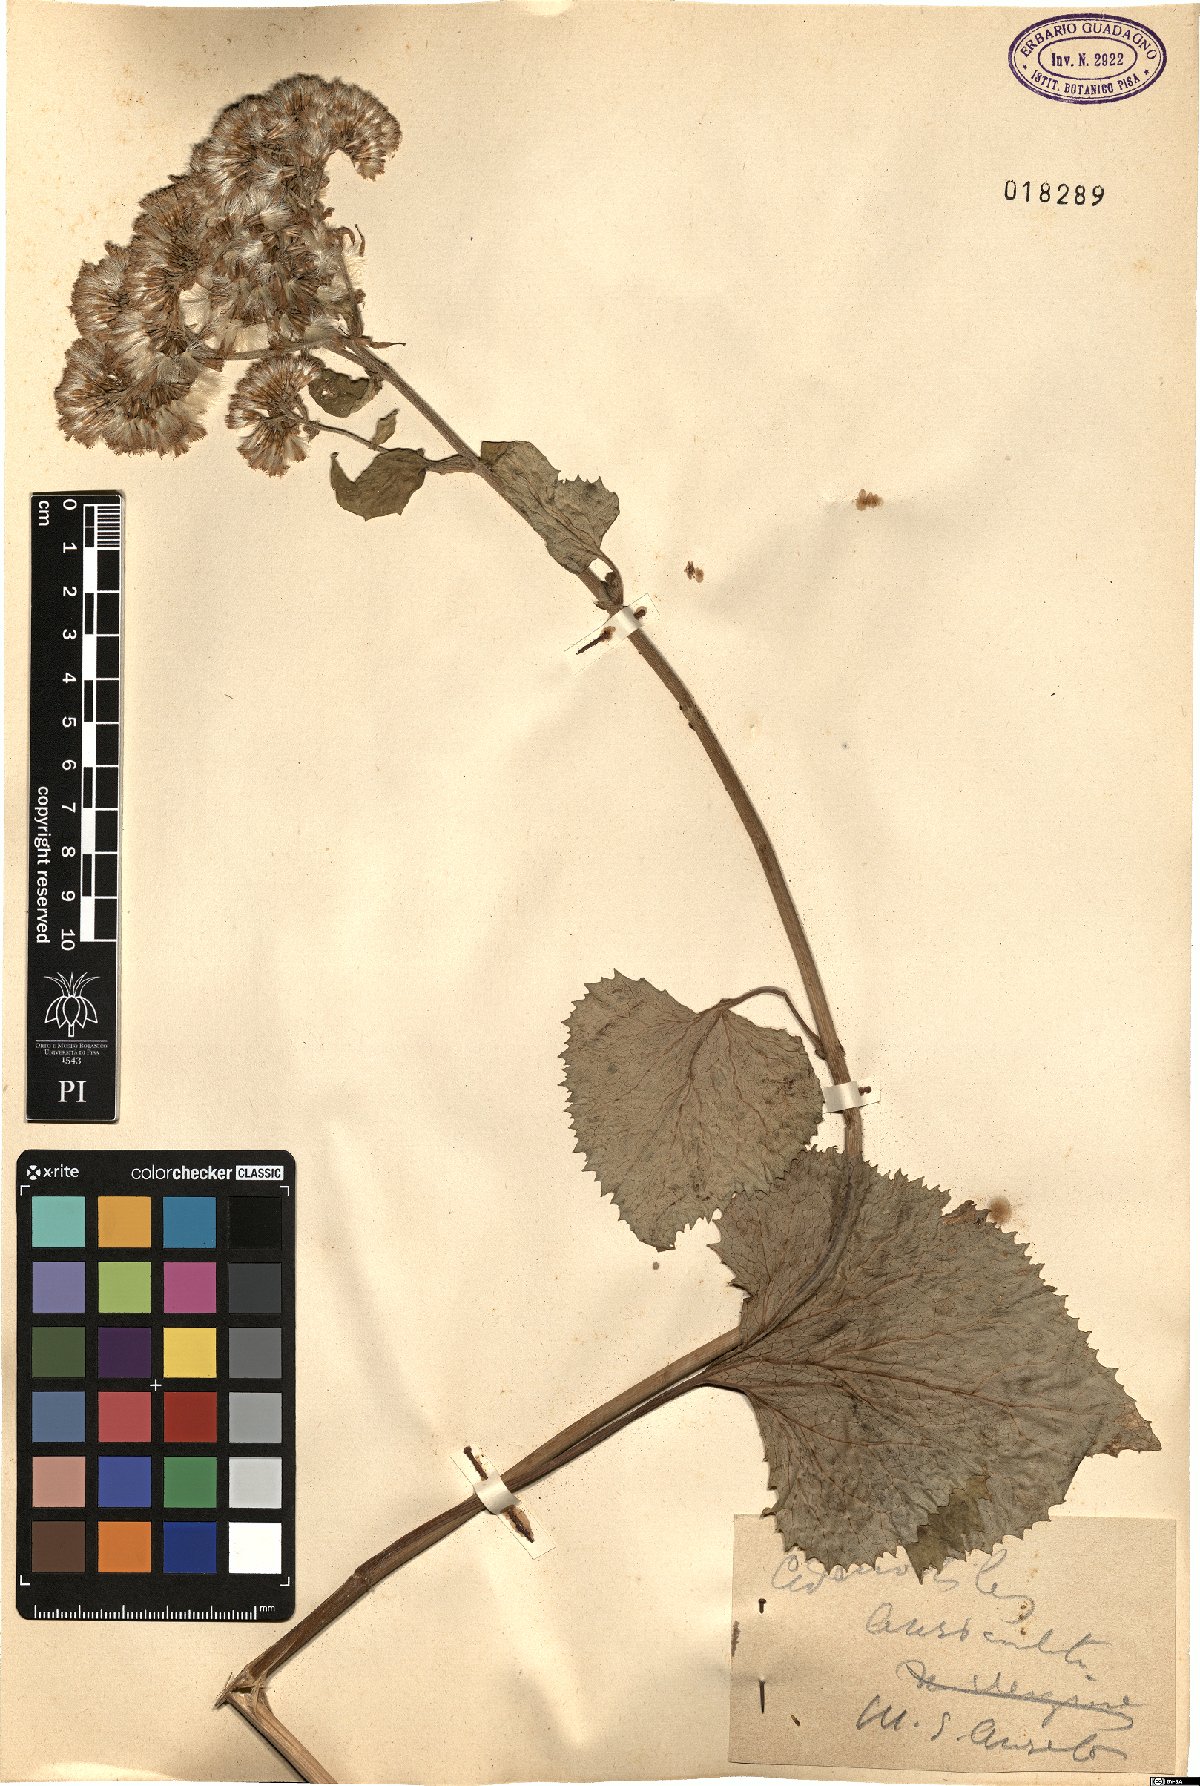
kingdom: Plantae
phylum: Tracheophyta
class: Magnoliopsida
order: Asterales
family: Asteraceae
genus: Adenostyles
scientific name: Adenostyles australis
